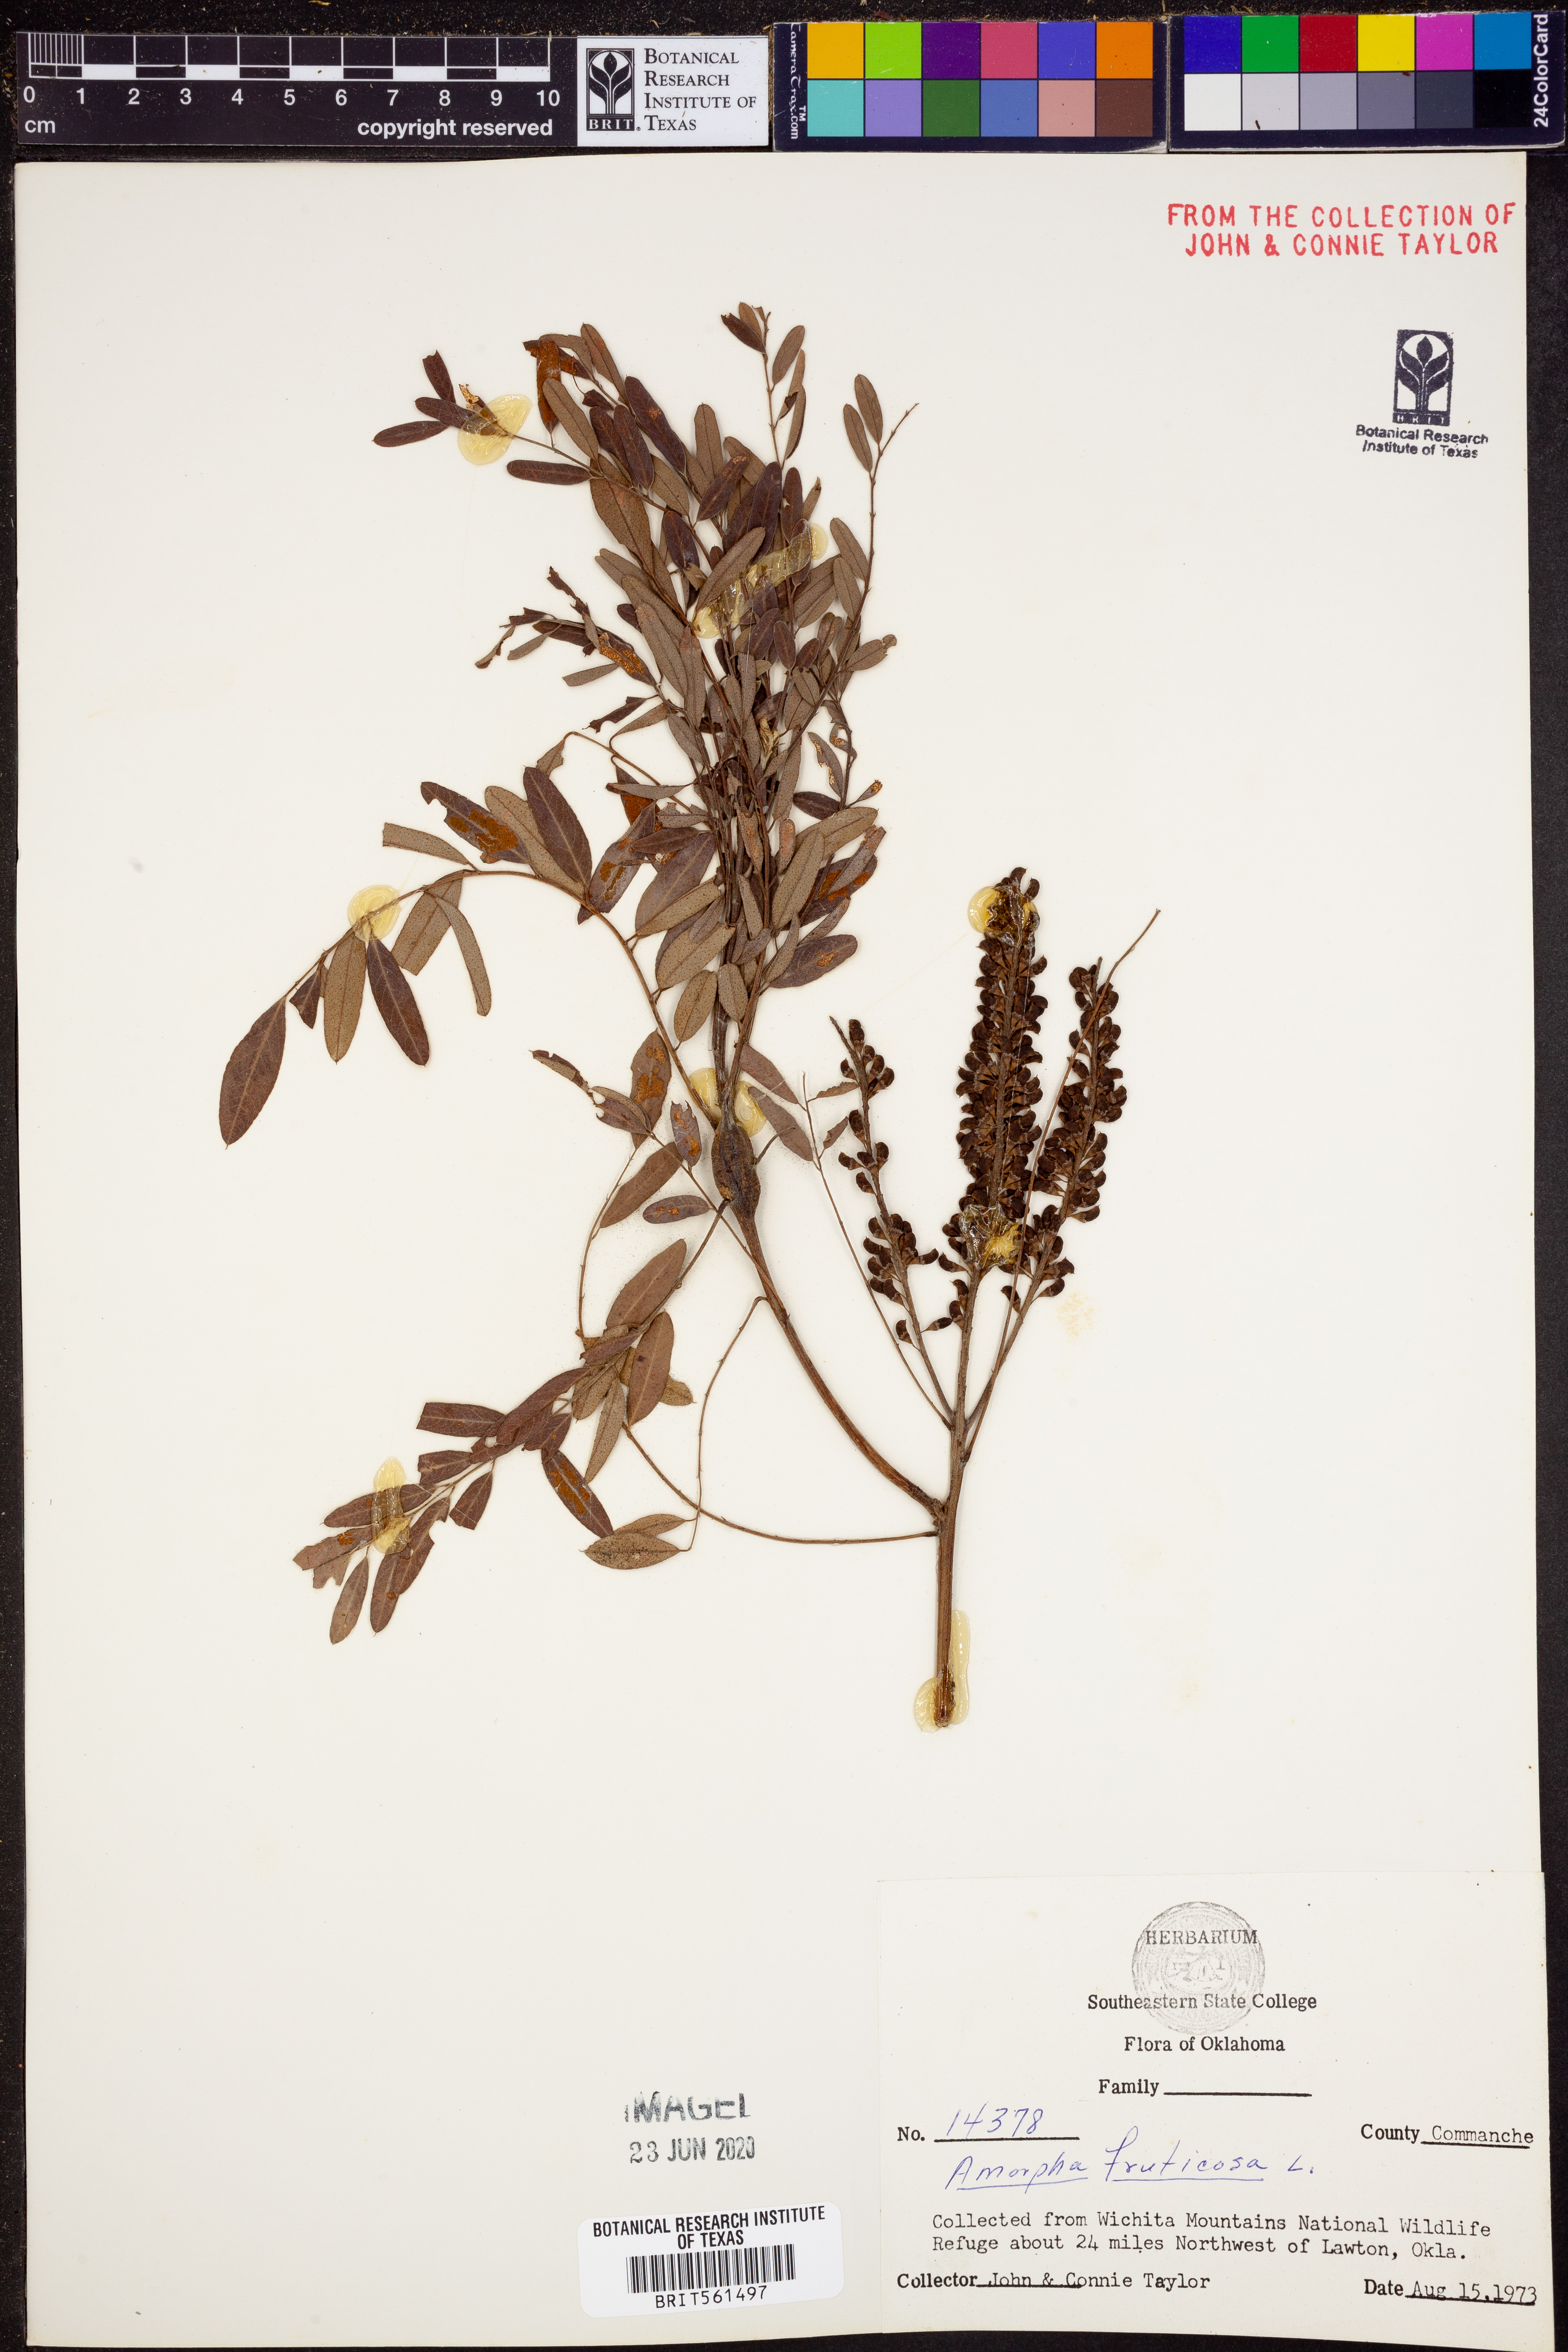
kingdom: Plantae
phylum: Tracheophyta
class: Magnoliopsida
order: Fabales
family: Fabaceae
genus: Amorpha
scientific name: Amorpha fruticosa
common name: False indigo
